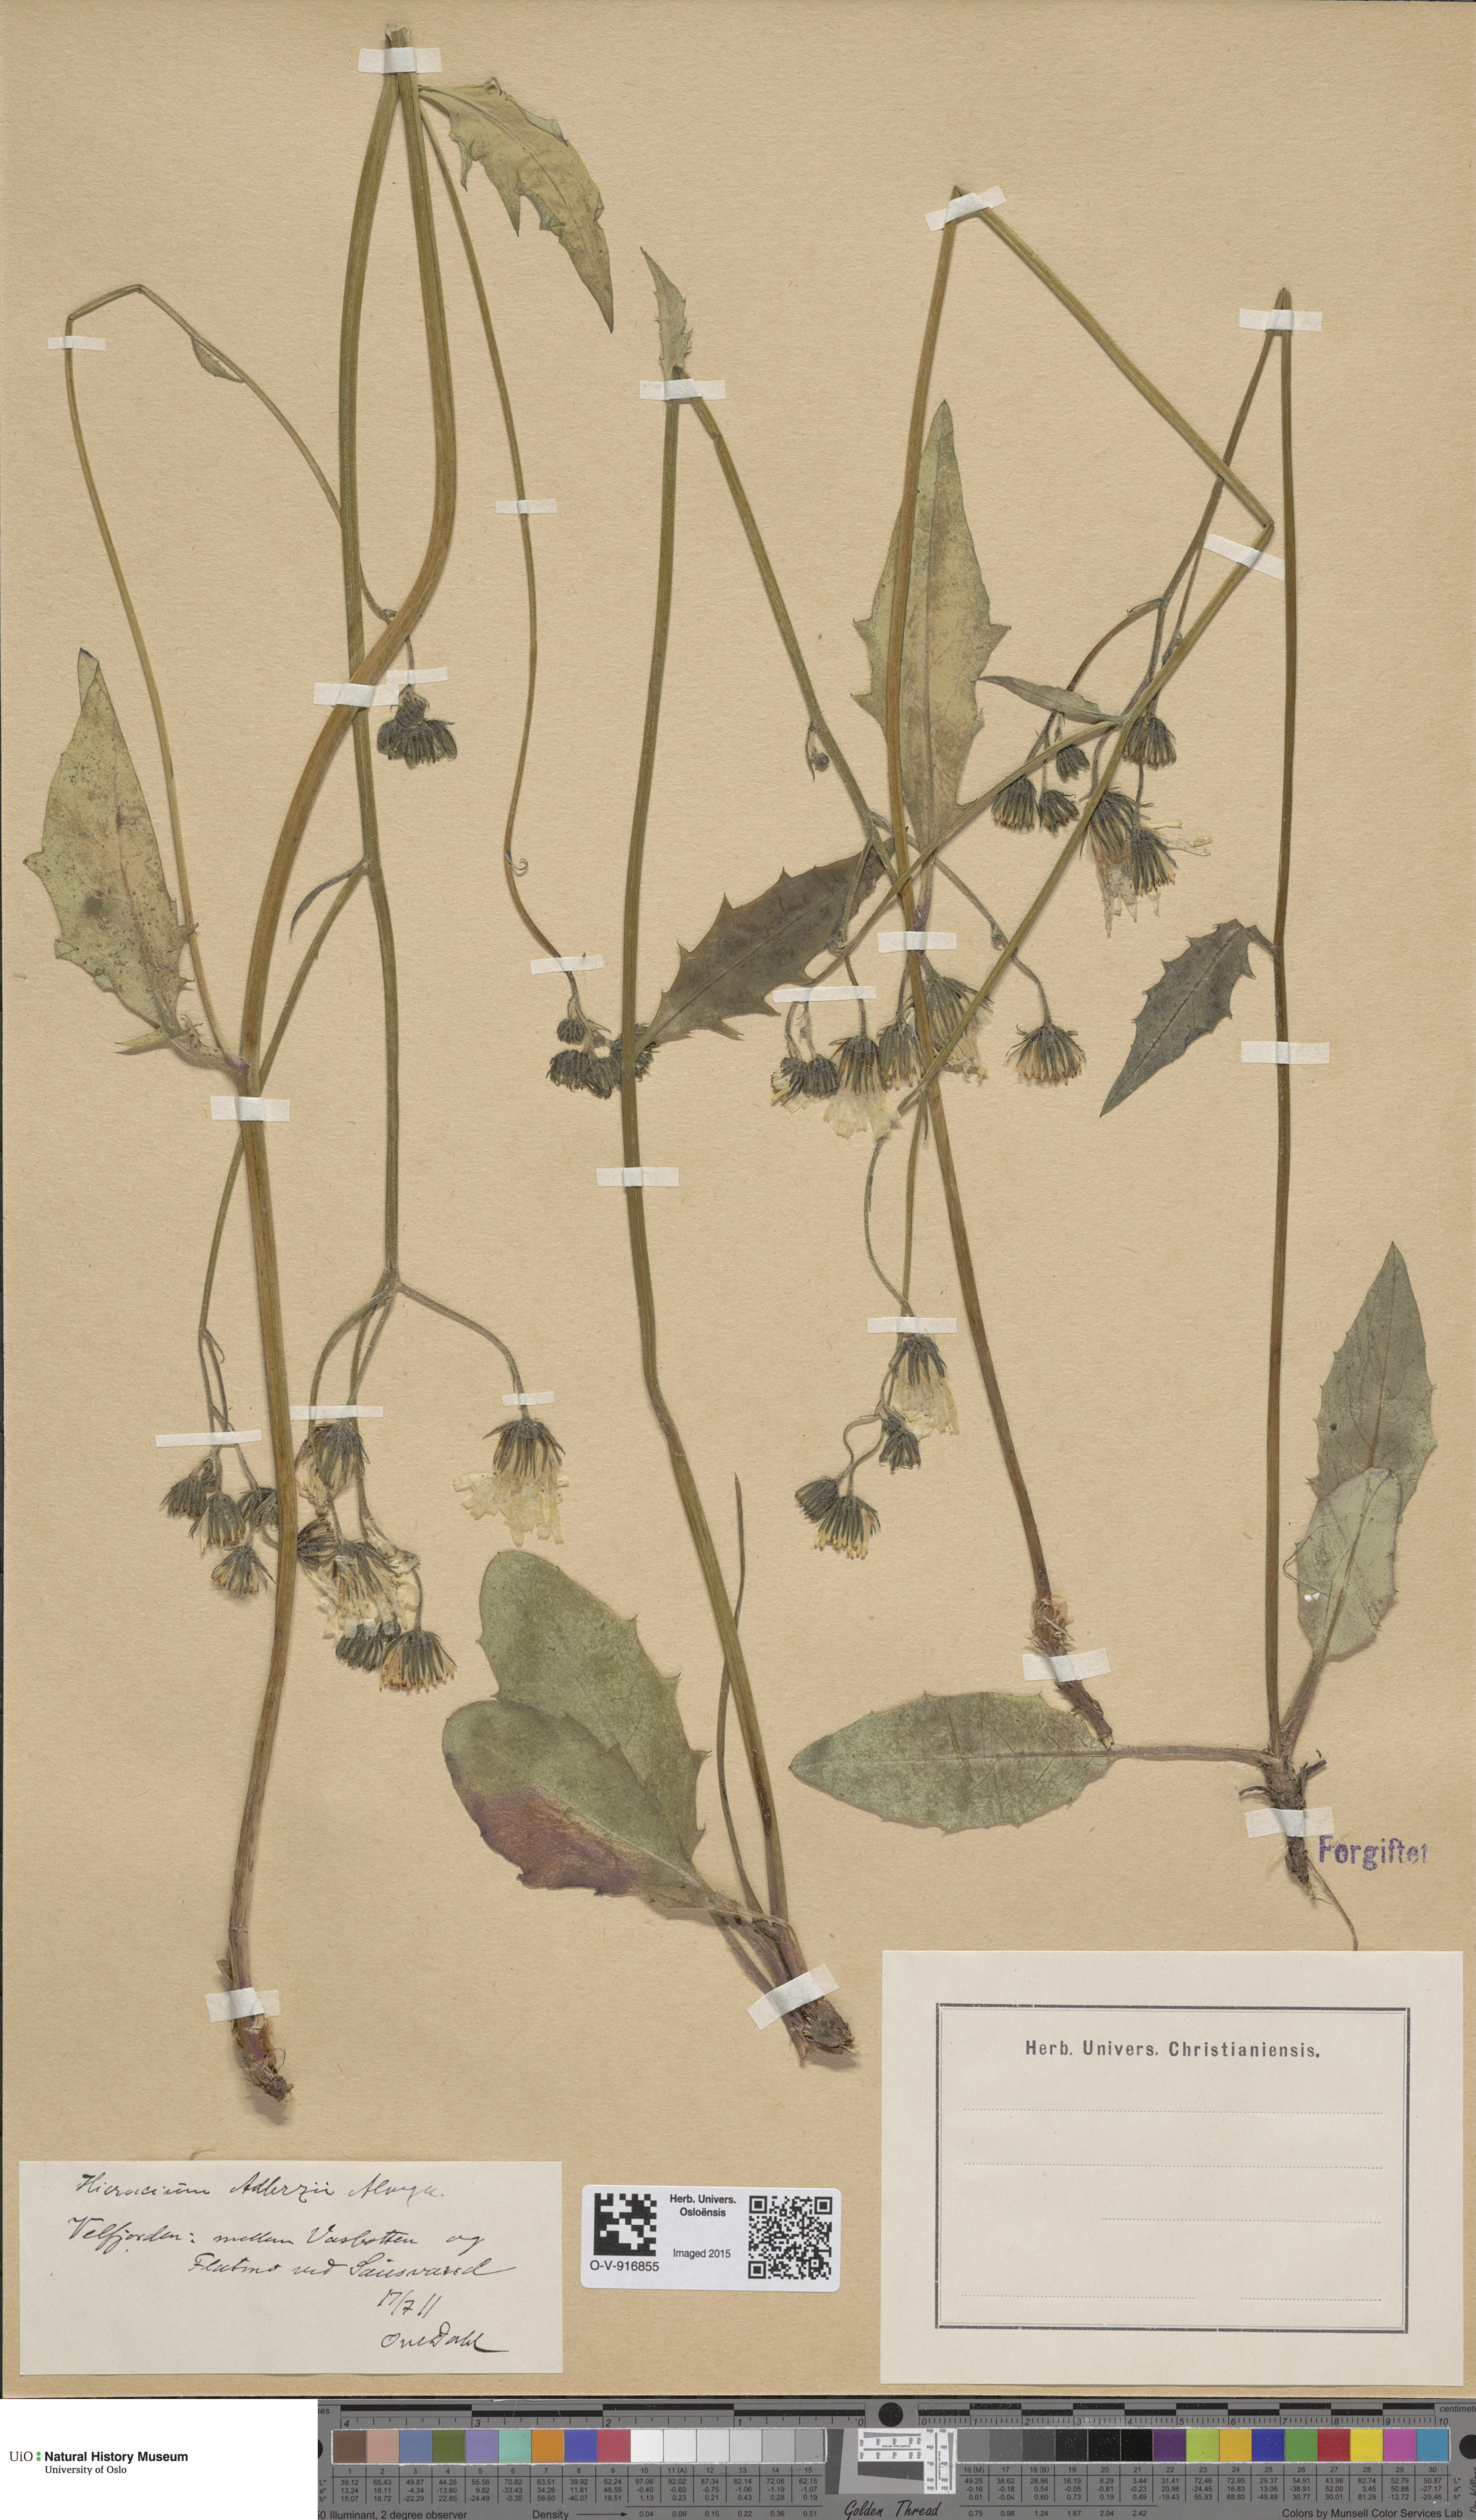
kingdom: Plantae
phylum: Tracheophyta
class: Magnoliopsida
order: Asterales
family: Asteraceae
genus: Hieracium
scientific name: Hieracium
